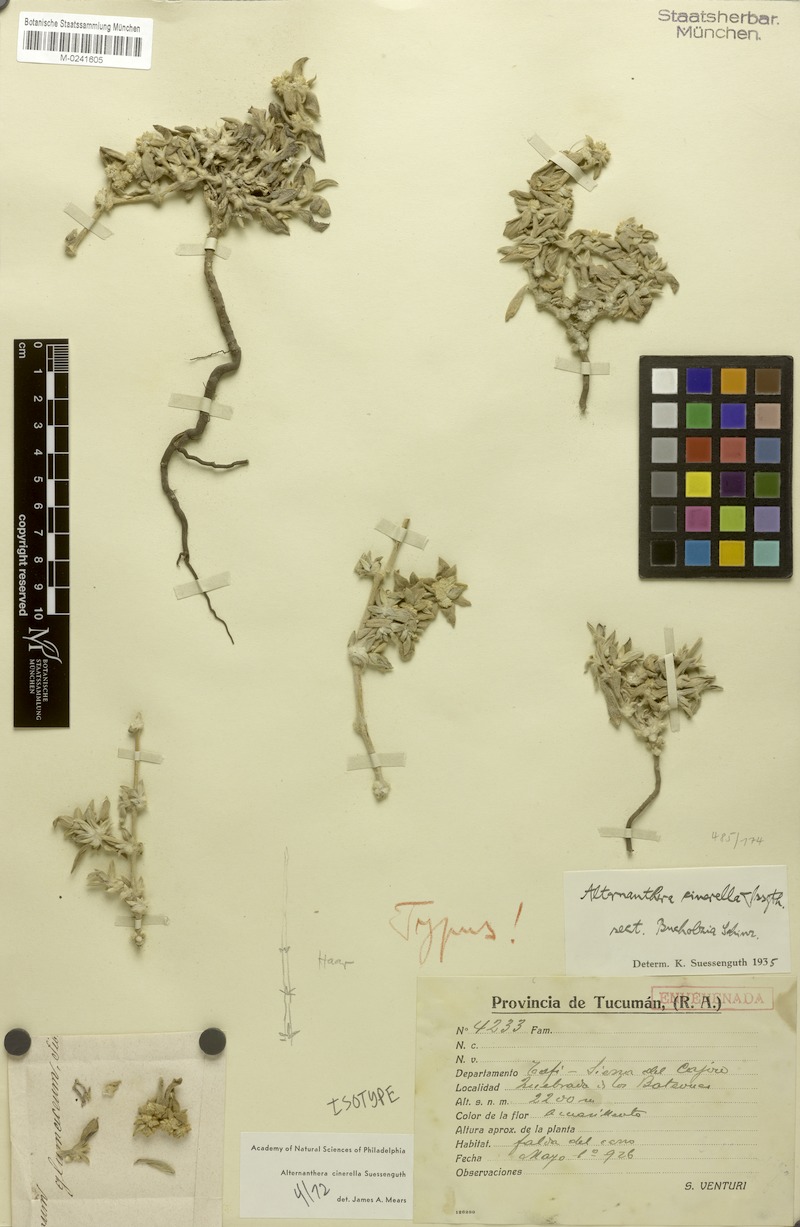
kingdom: Plantae
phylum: Tracheophyta
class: Magnoliopsida
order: Caryophyllales
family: Amaranthaceae
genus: Alternanthera
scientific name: Alternanthera cinerella
